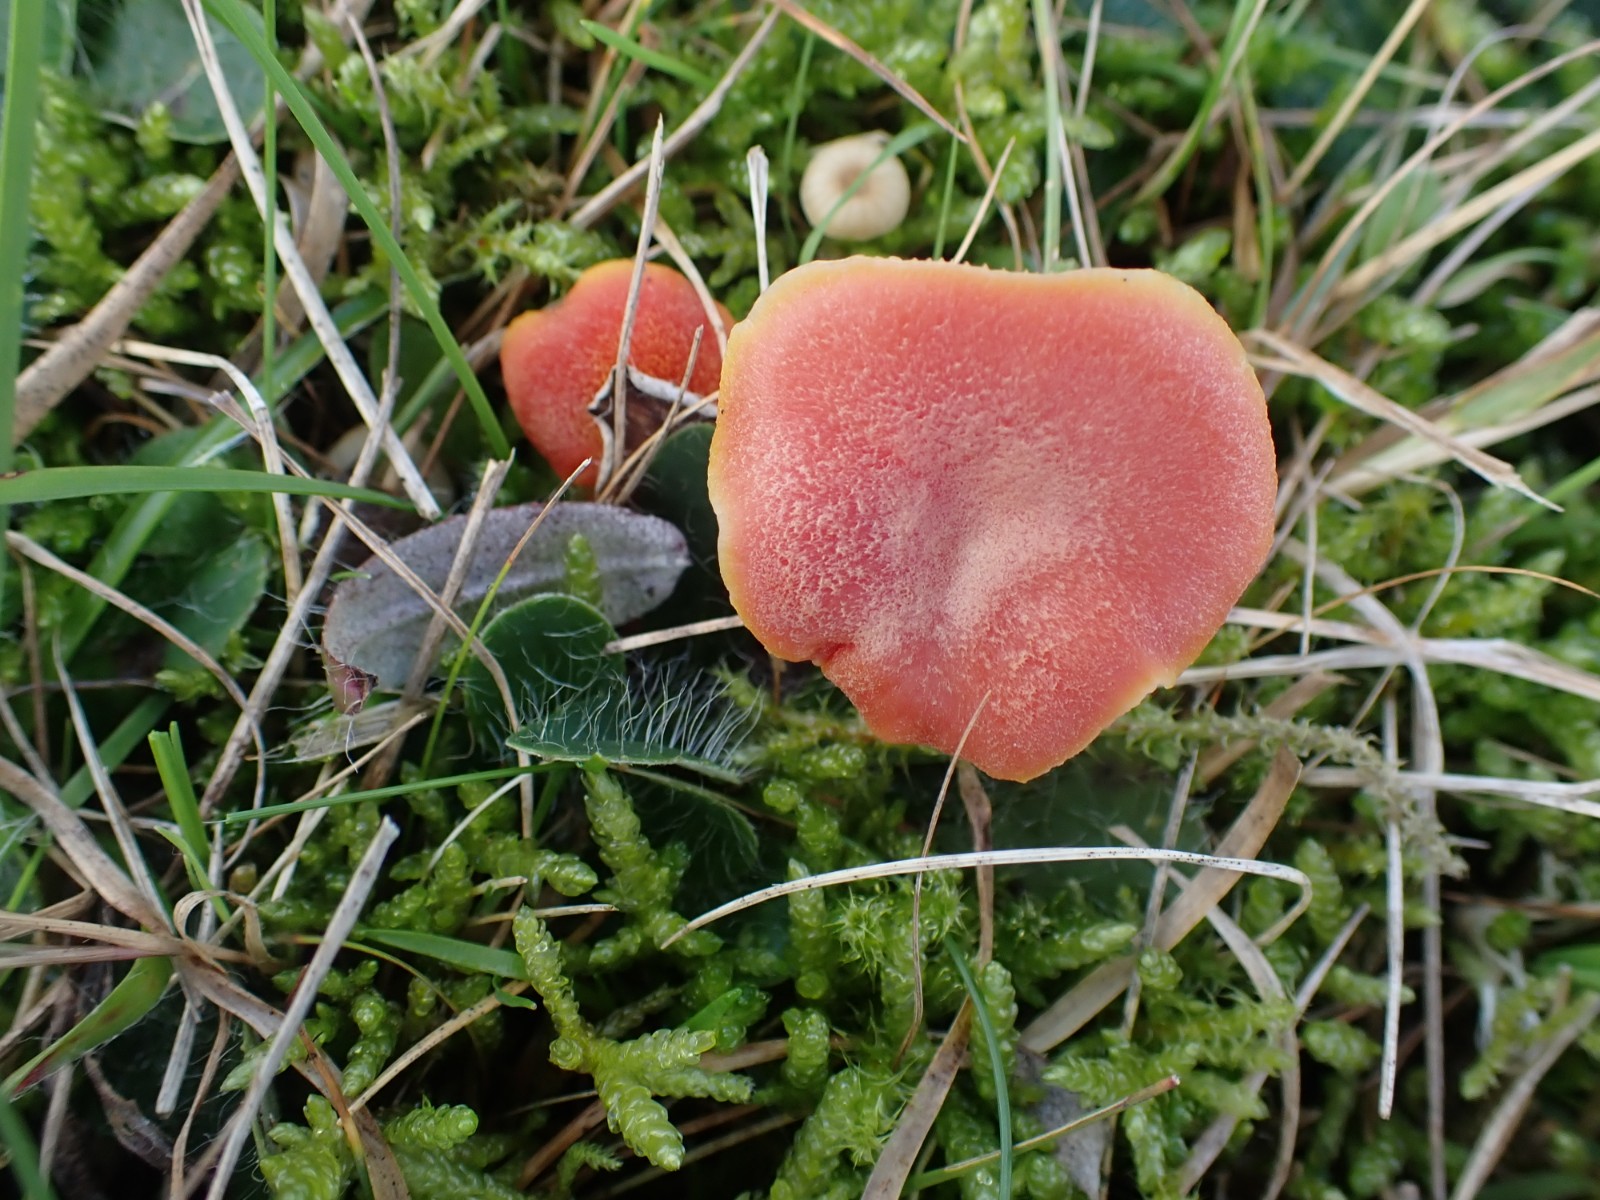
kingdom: Fungi
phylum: Basidiomycota
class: Agaricomycetes
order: Agaricales
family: Hygrophoraceae
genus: Hygrocybe
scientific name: Hygrocybe miniata
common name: mønje-vokshat
